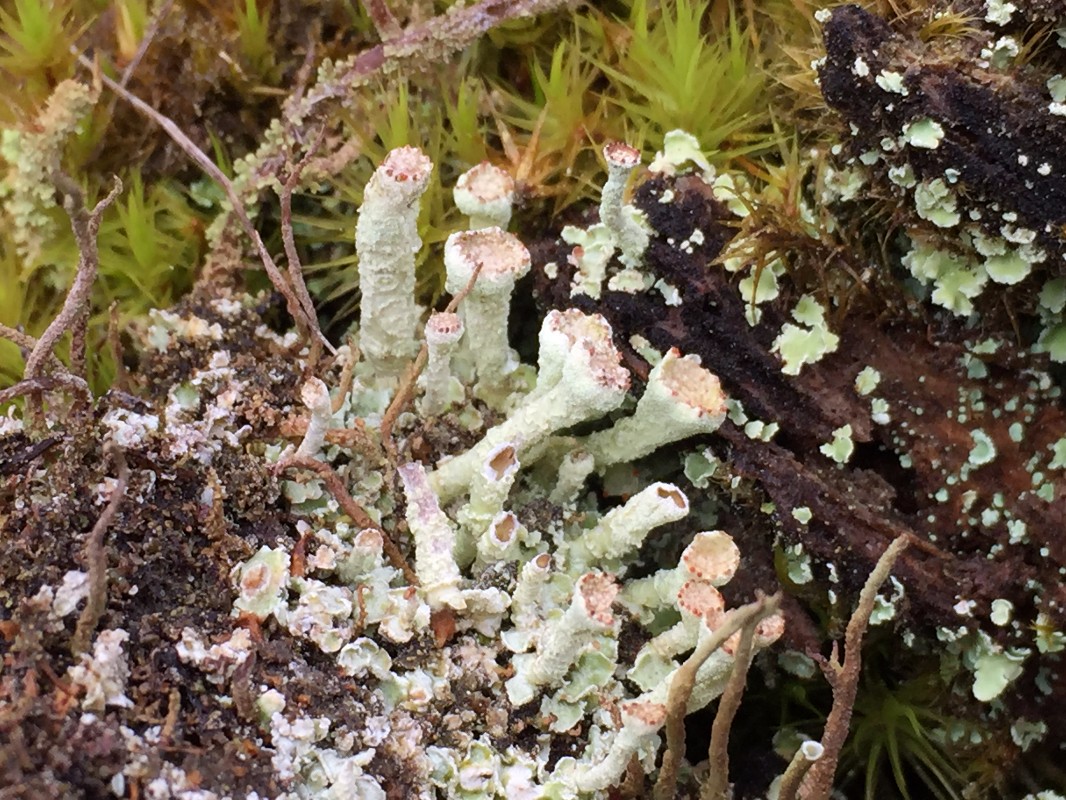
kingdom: Fungi
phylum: Ascomycota
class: Lecanoromycetes
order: Lecanorales
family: Cladoniaceae
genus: Cladonia
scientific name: Cladonia digitata
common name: finger-bægerlav
